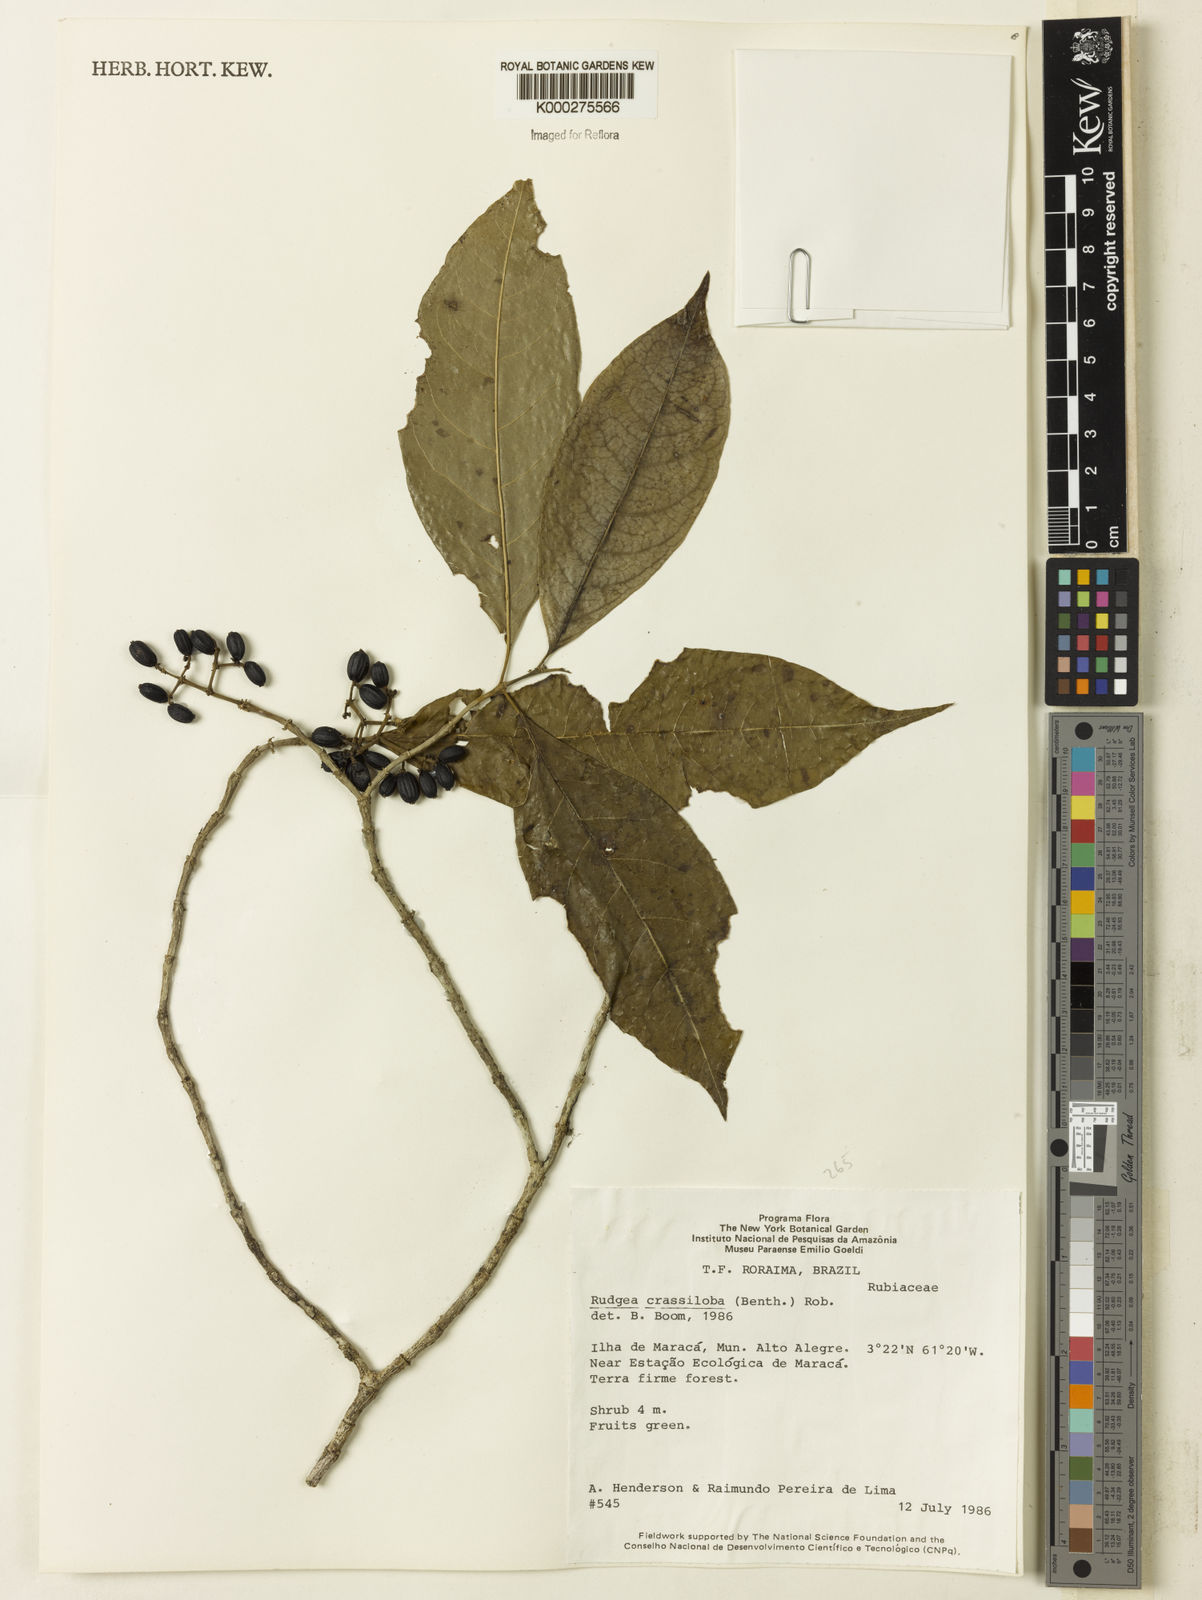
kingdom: Plantae
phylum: Tracheophyta
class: Magnoliopsida
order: Gentianales
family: Rubiaceae
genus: Rudgea
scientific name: Rudgea crassiloba
